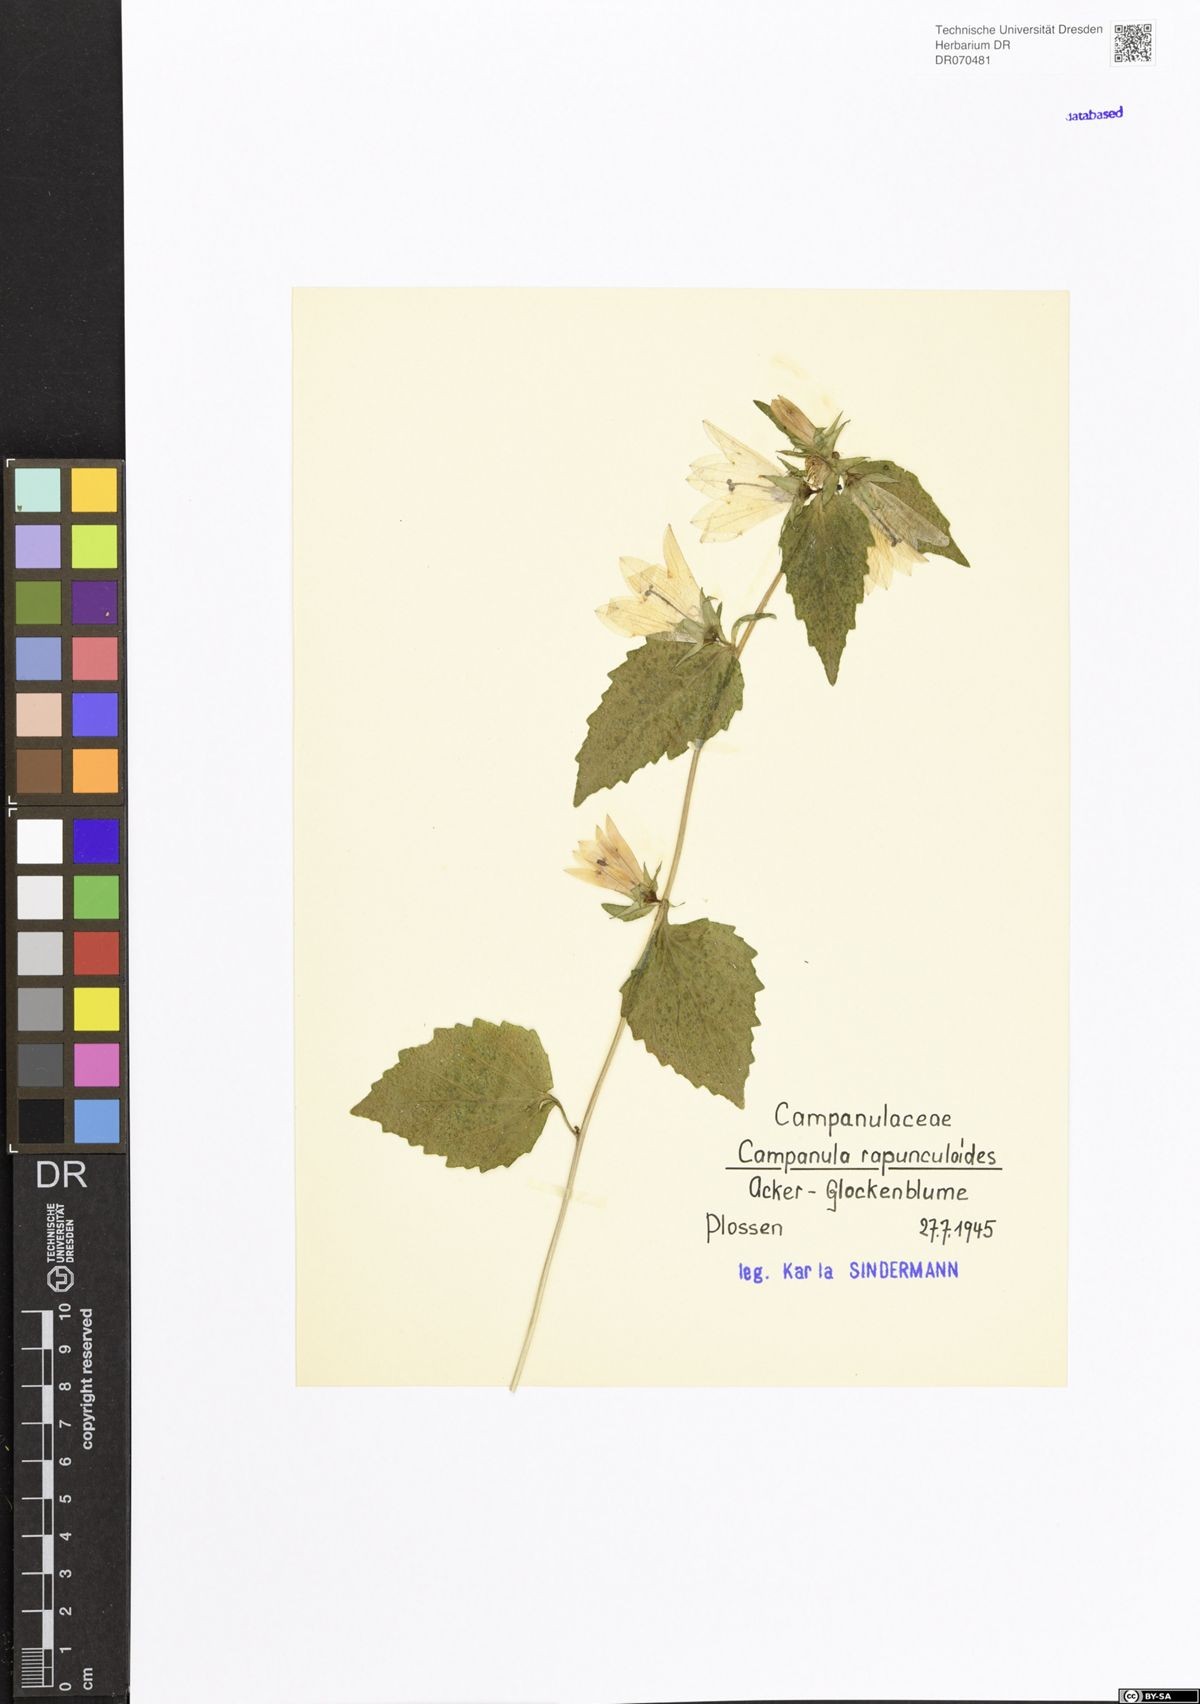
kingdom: Plantae
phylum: Tracheophyta
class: Magnoliopsida
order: Asterales
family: Campanulaceae
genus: Campanula
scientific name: Campanula rapunculoides
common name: Creeping bellflower
